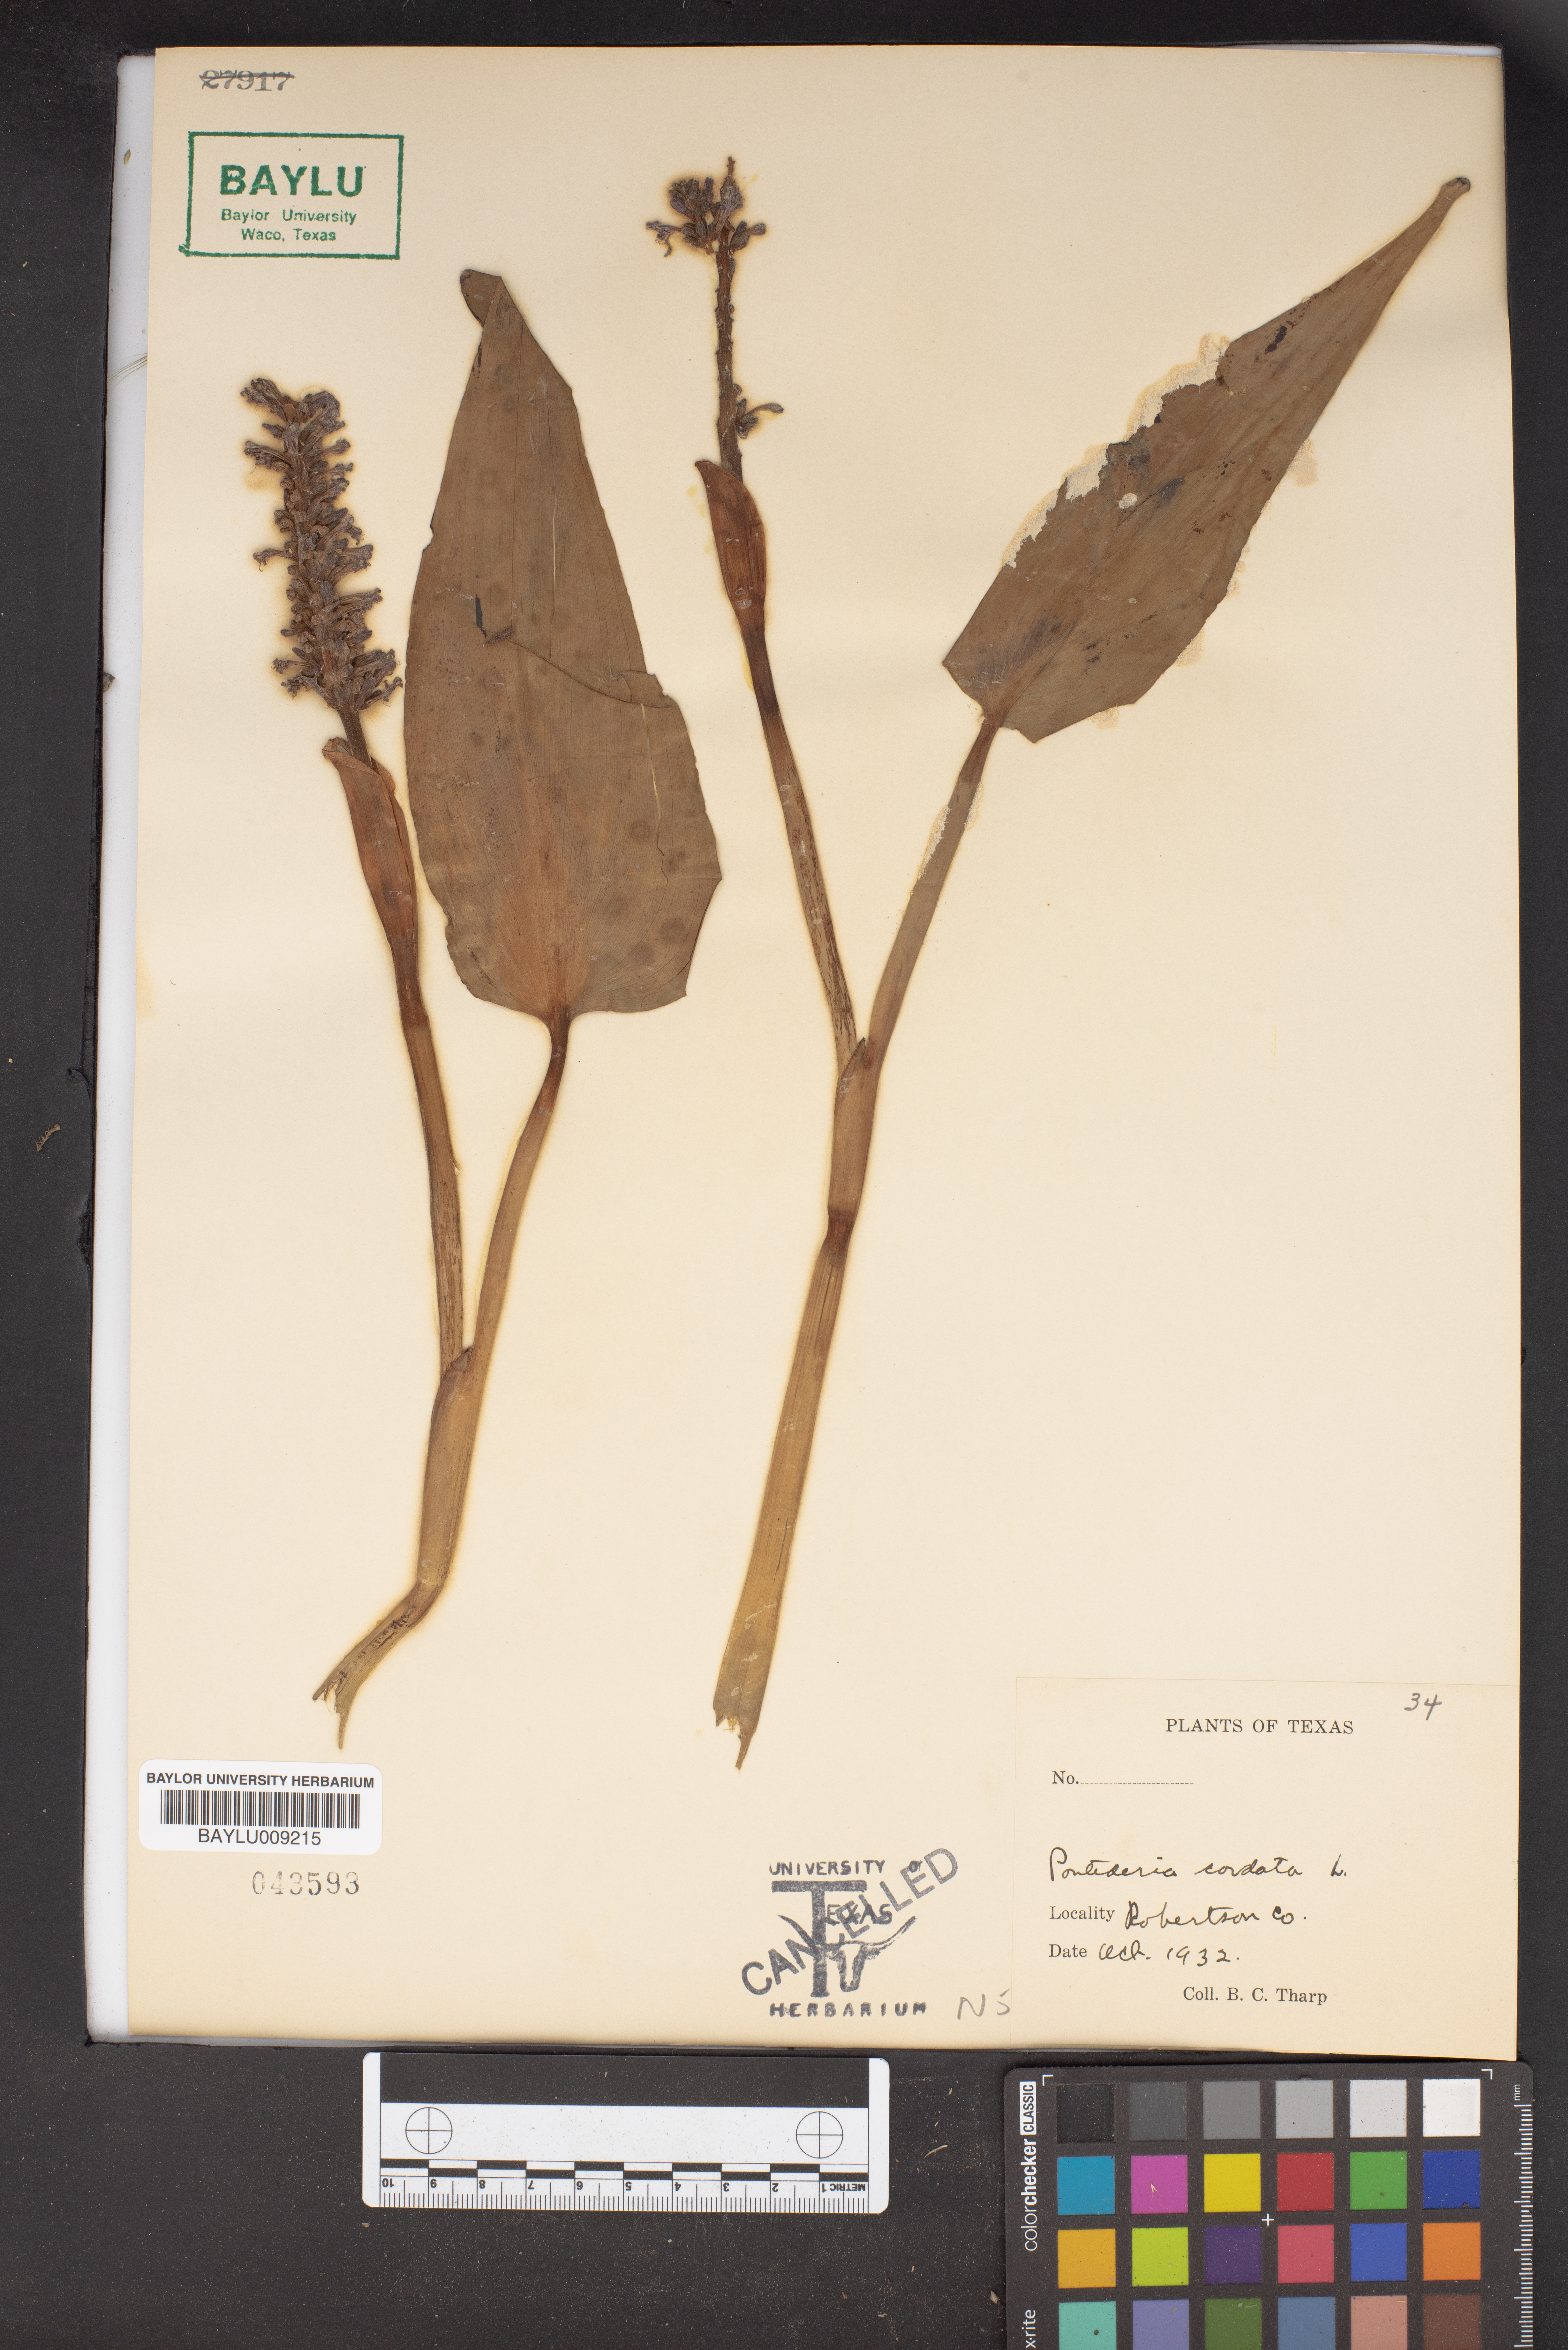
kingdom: Plantae
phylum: Tracheophyta
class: Liliopsida
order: Commelinales
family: Pontederiaceae
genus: Pontederia
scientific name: Pontederia
